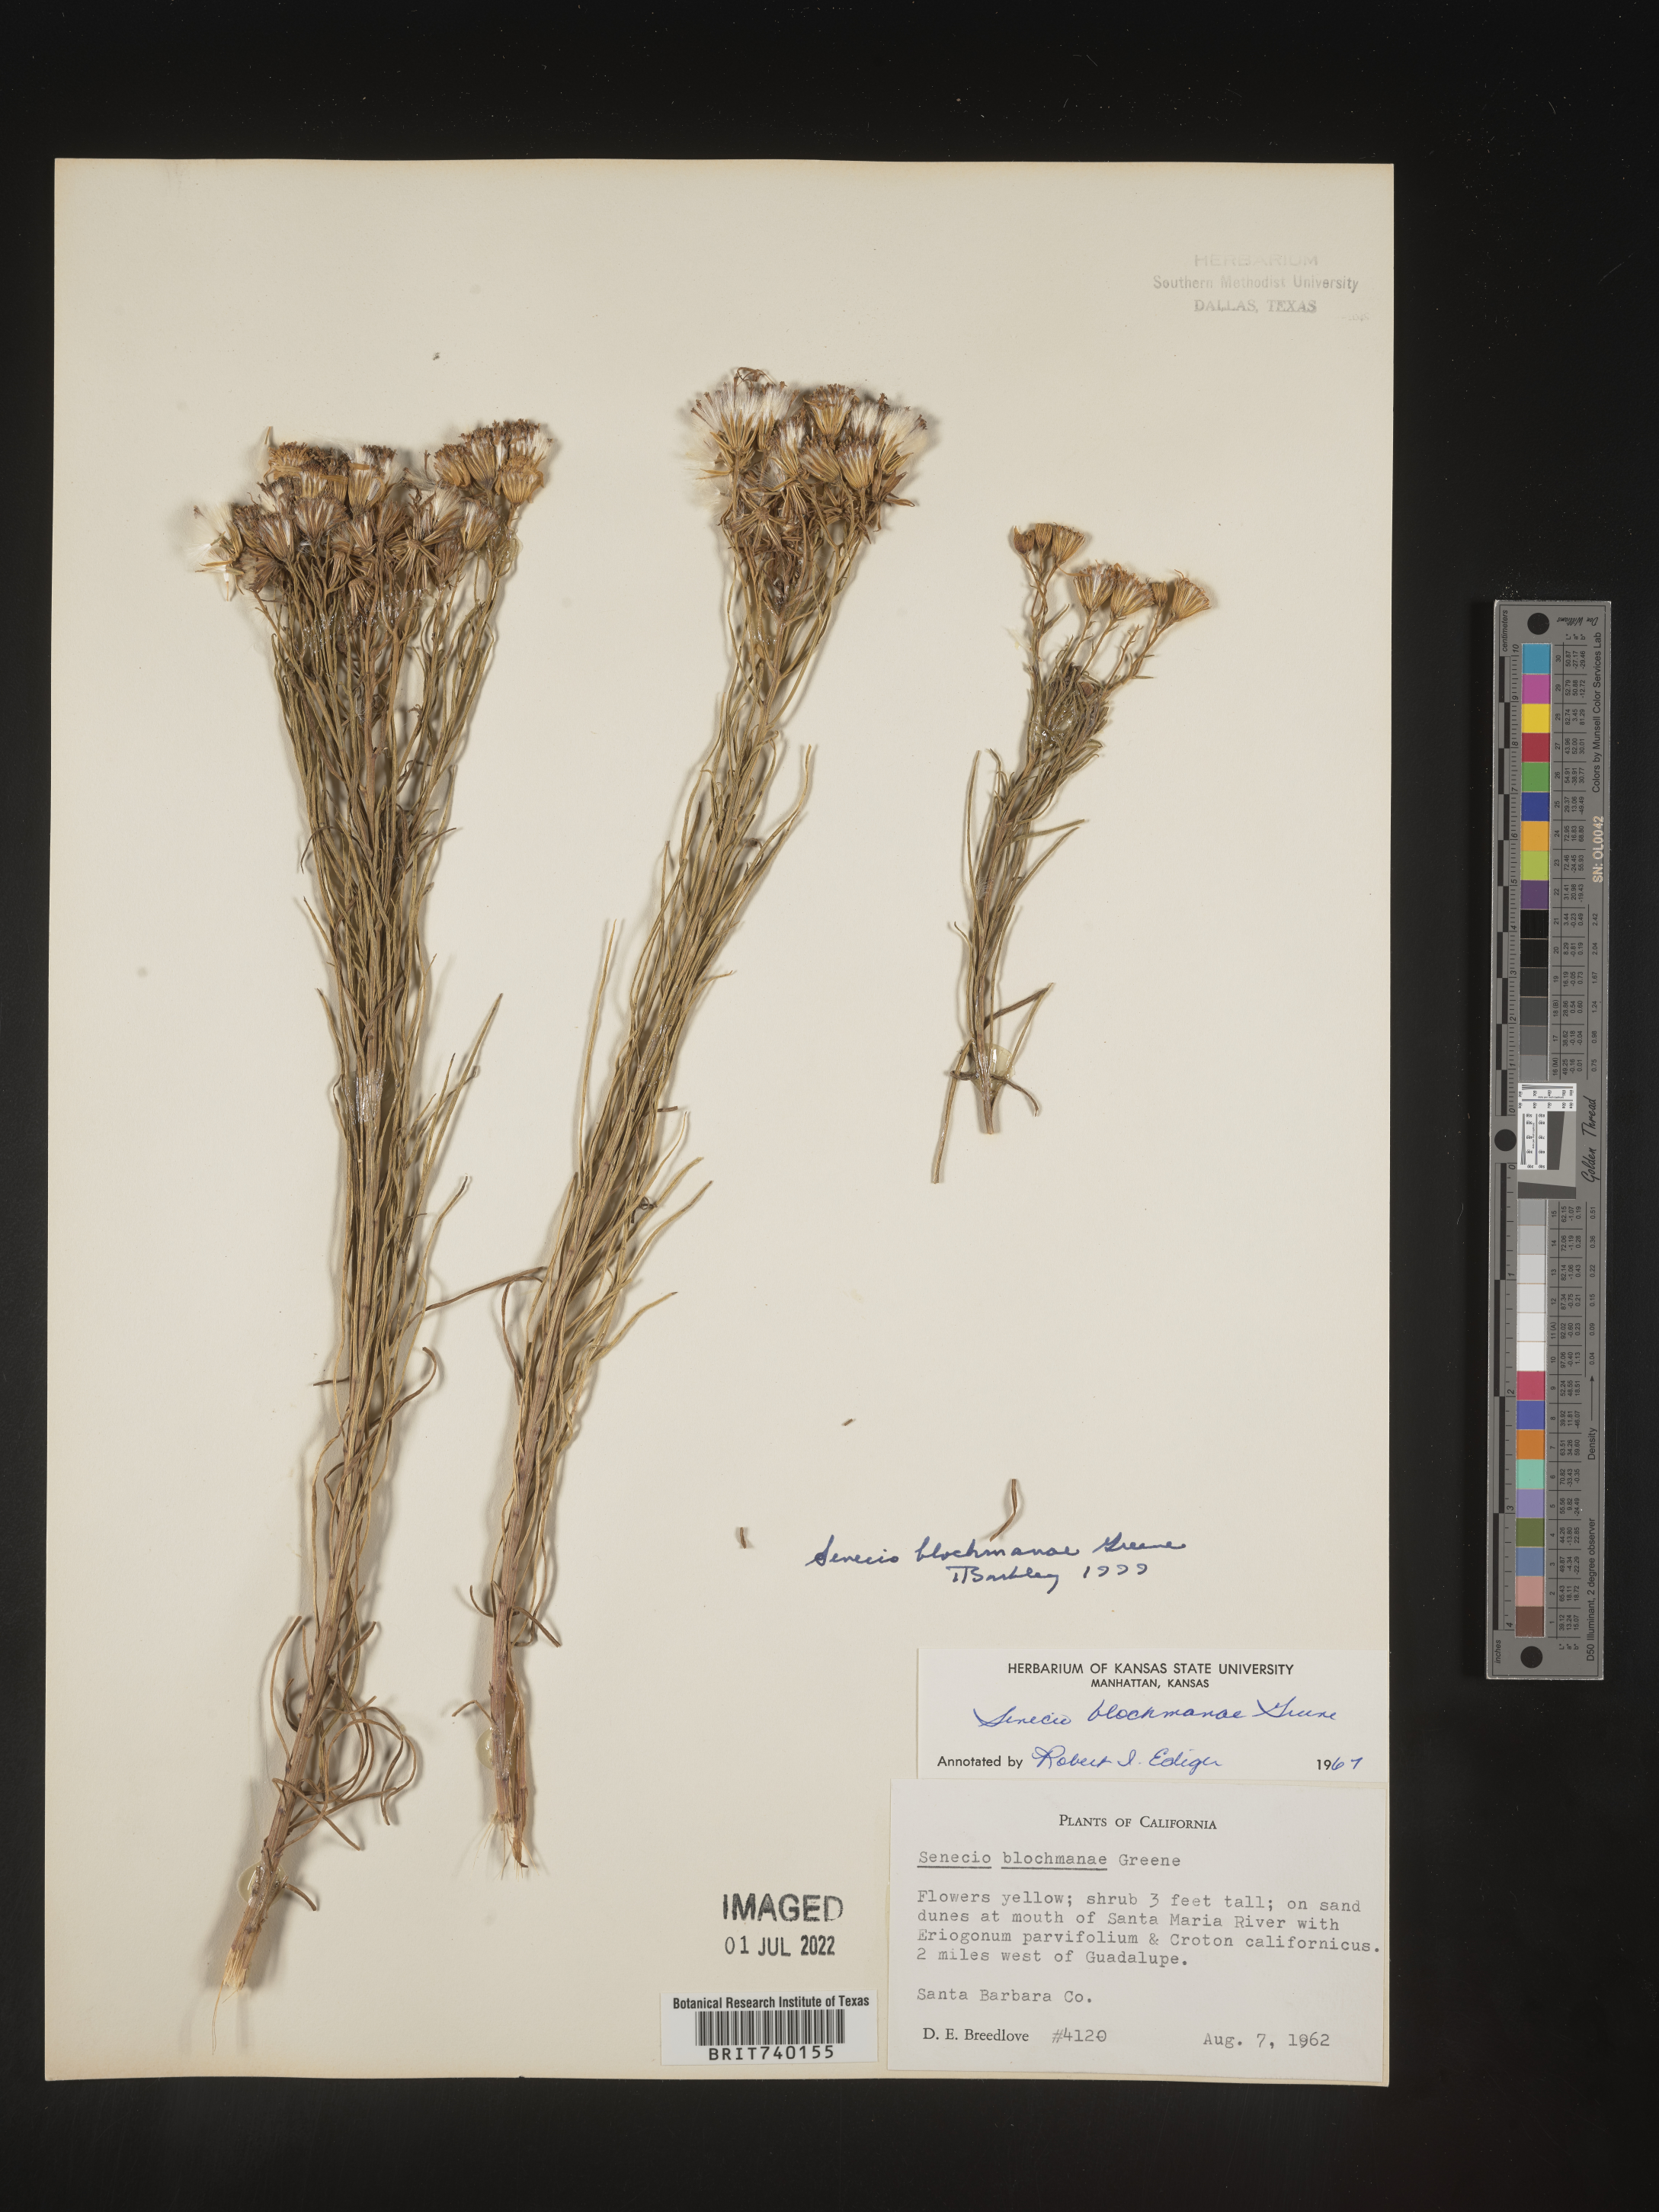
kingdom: Plantae
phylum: Tracheophyta
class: Magnoliopsida
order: Asterales
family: Asteraceae
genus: Senecio
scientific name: Senecio blochmanae
